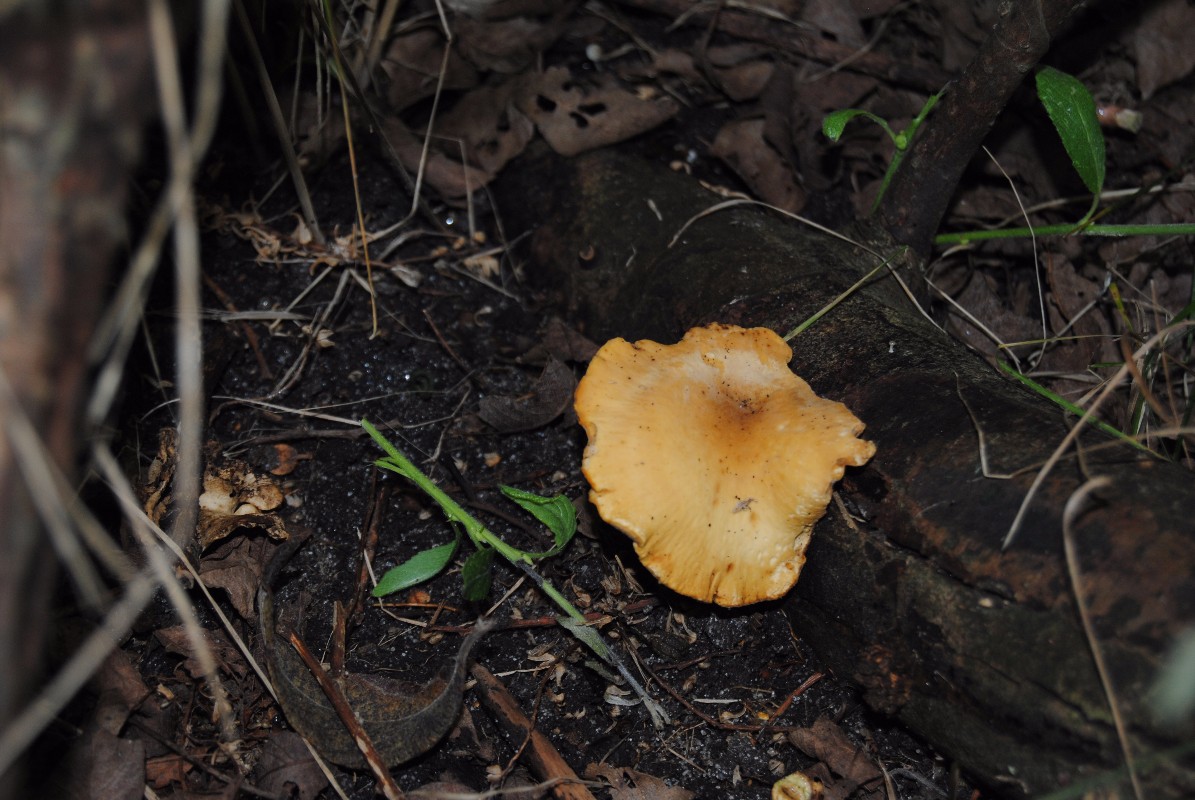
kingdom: Fungi
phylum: Basidiomycota
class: Agaricomycetes
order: Polyporales
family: Polyporaceae
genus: Cerioporus
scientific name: Cerioporus varius
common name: foranderlig stilkporesvamp
